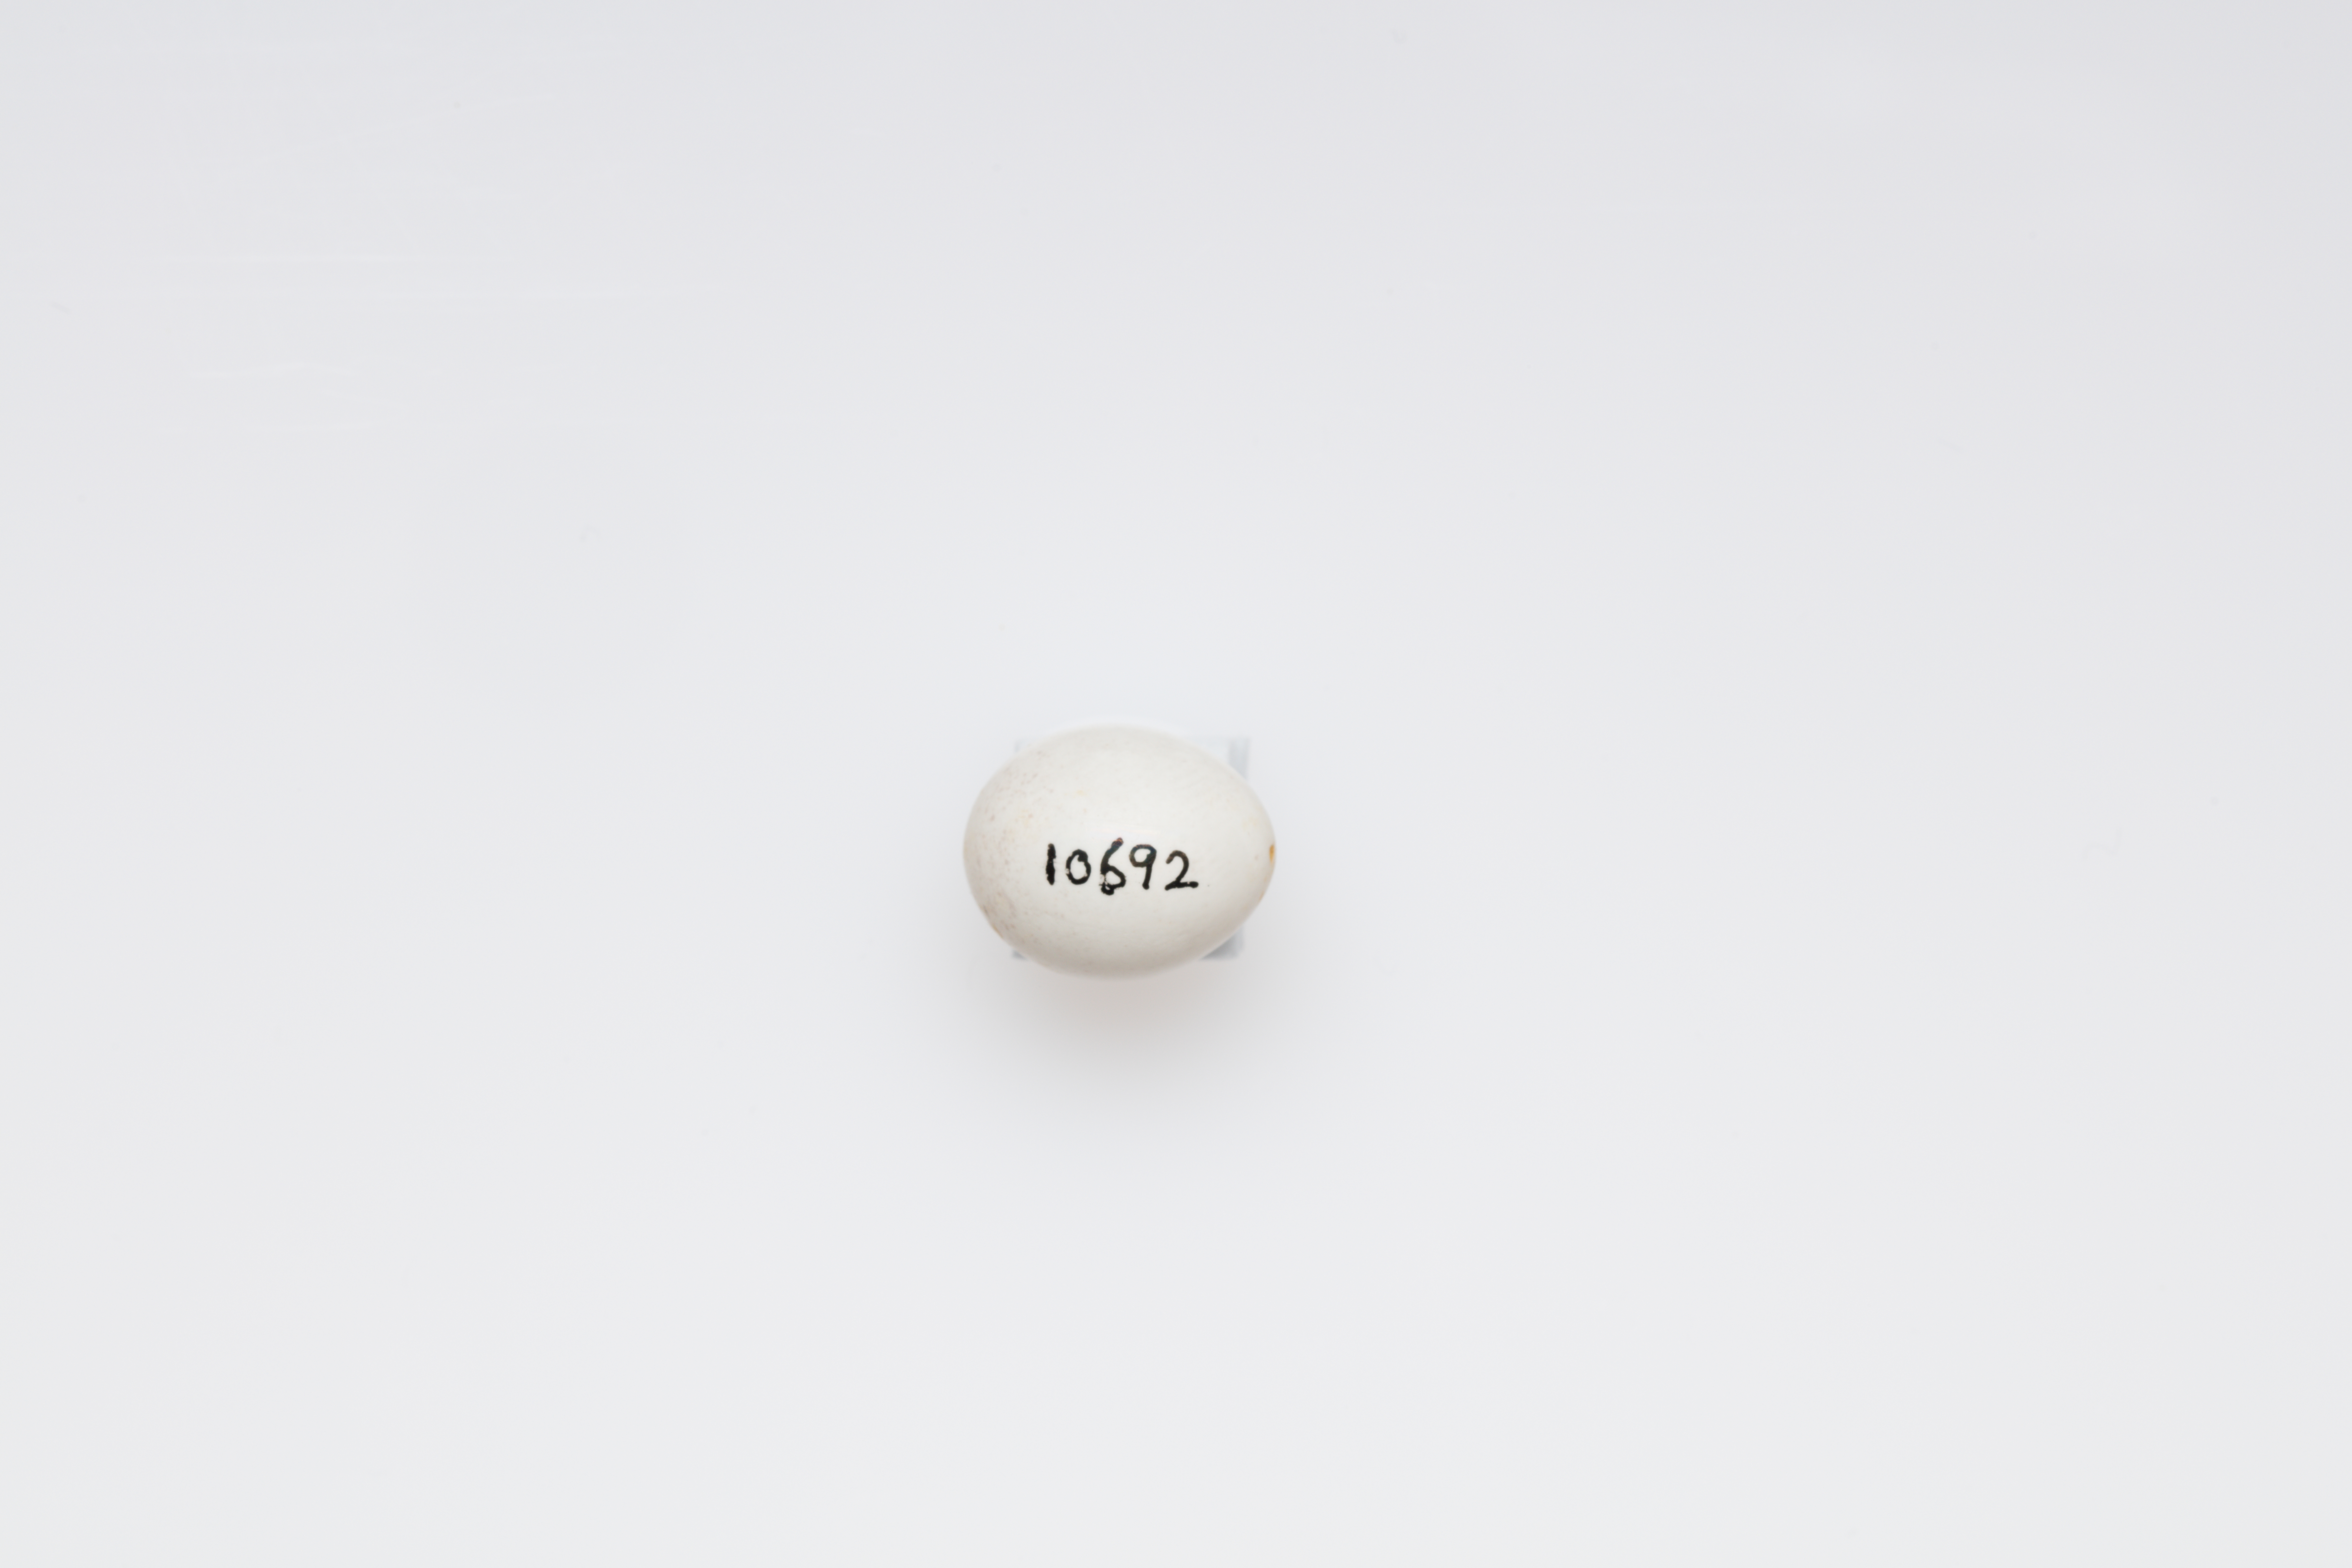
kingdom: Animalia
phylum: Chordata
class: Aves
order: Passeriformes
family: Aegithalidae
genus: Aegithalos
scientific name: Aegithalos caudatus
